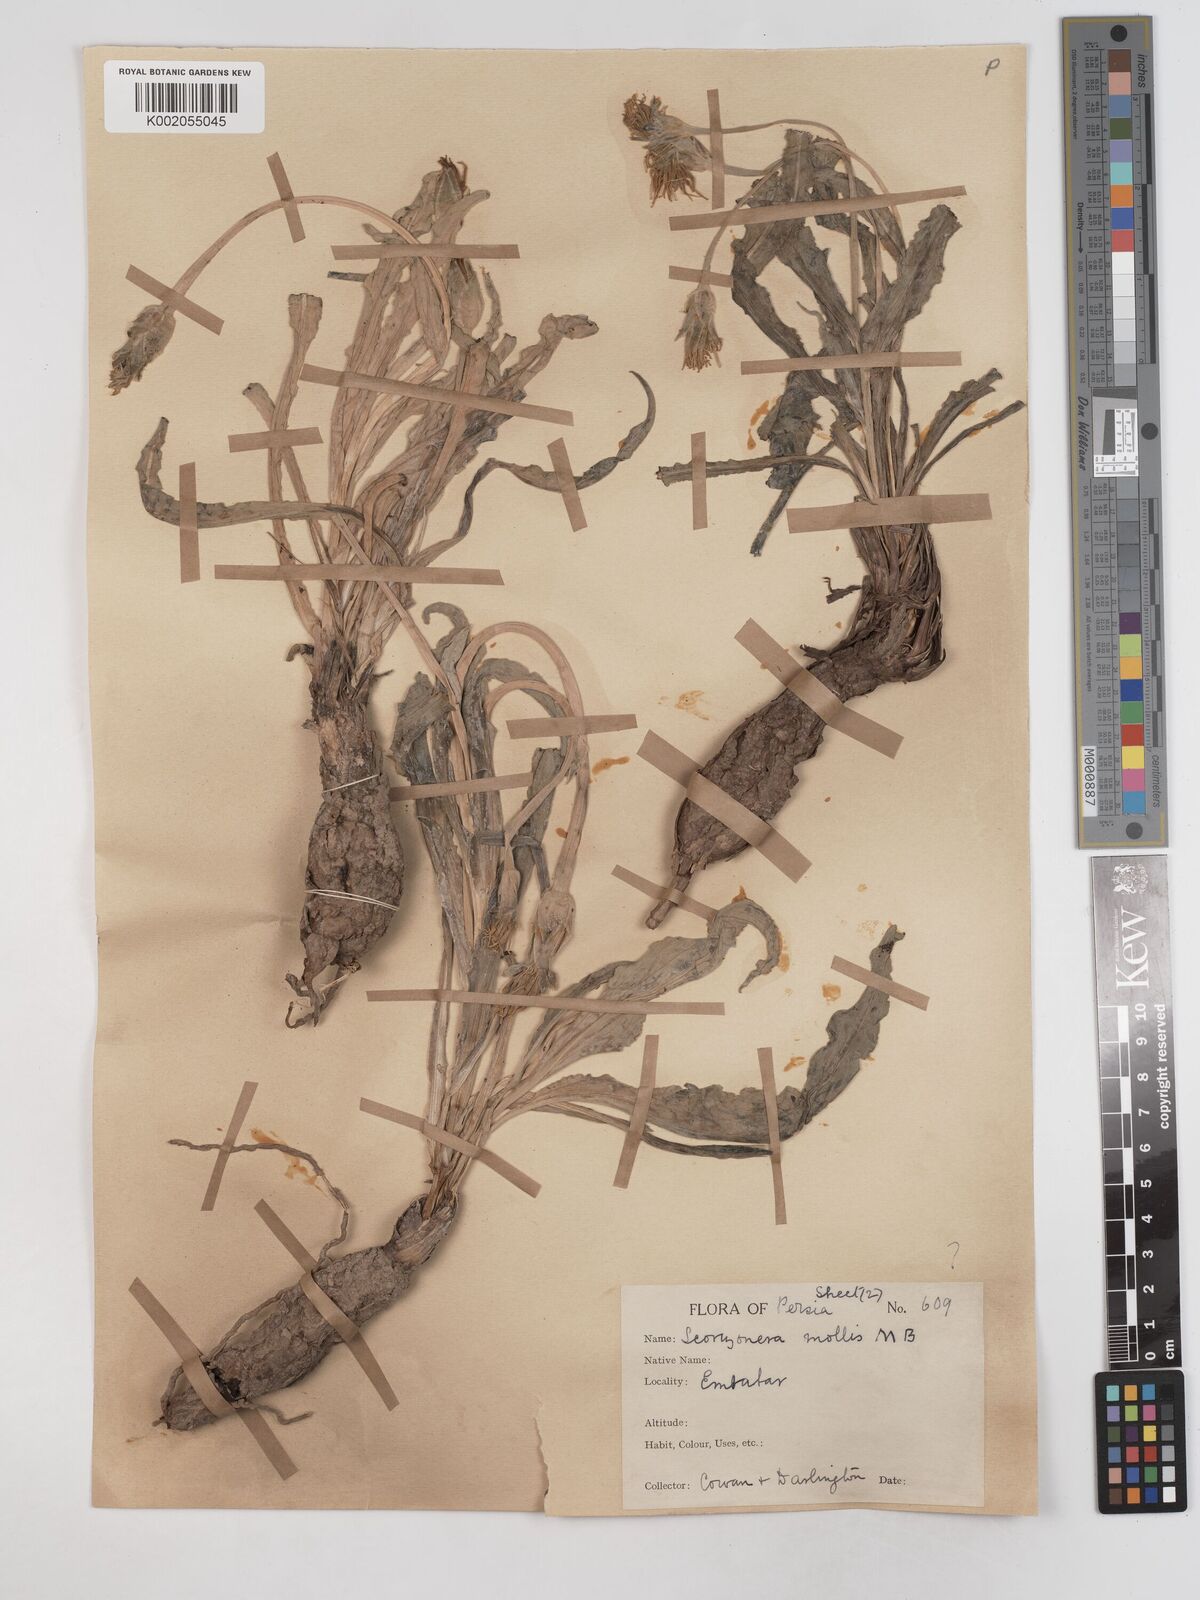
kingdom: Plantae
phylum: Tracheophyta
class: Magnoliopsida
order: Asterales
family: Asteraceae
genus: Candollea
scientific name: Candollea mollis
